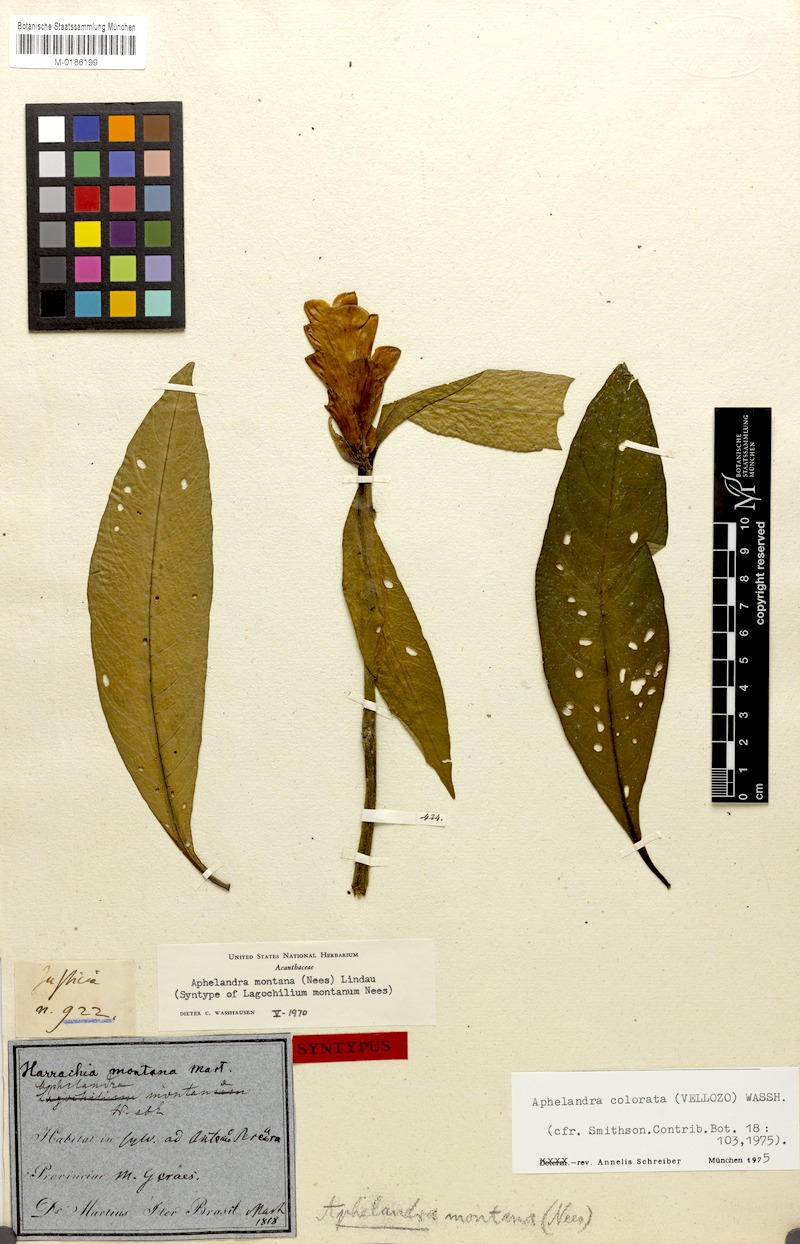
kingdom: Plantae
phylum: Tracheophyta
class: Magnoliopsida
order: Lamiales
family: Acanthaceae
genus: Aphelandra
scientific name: Aphelandra colorata
